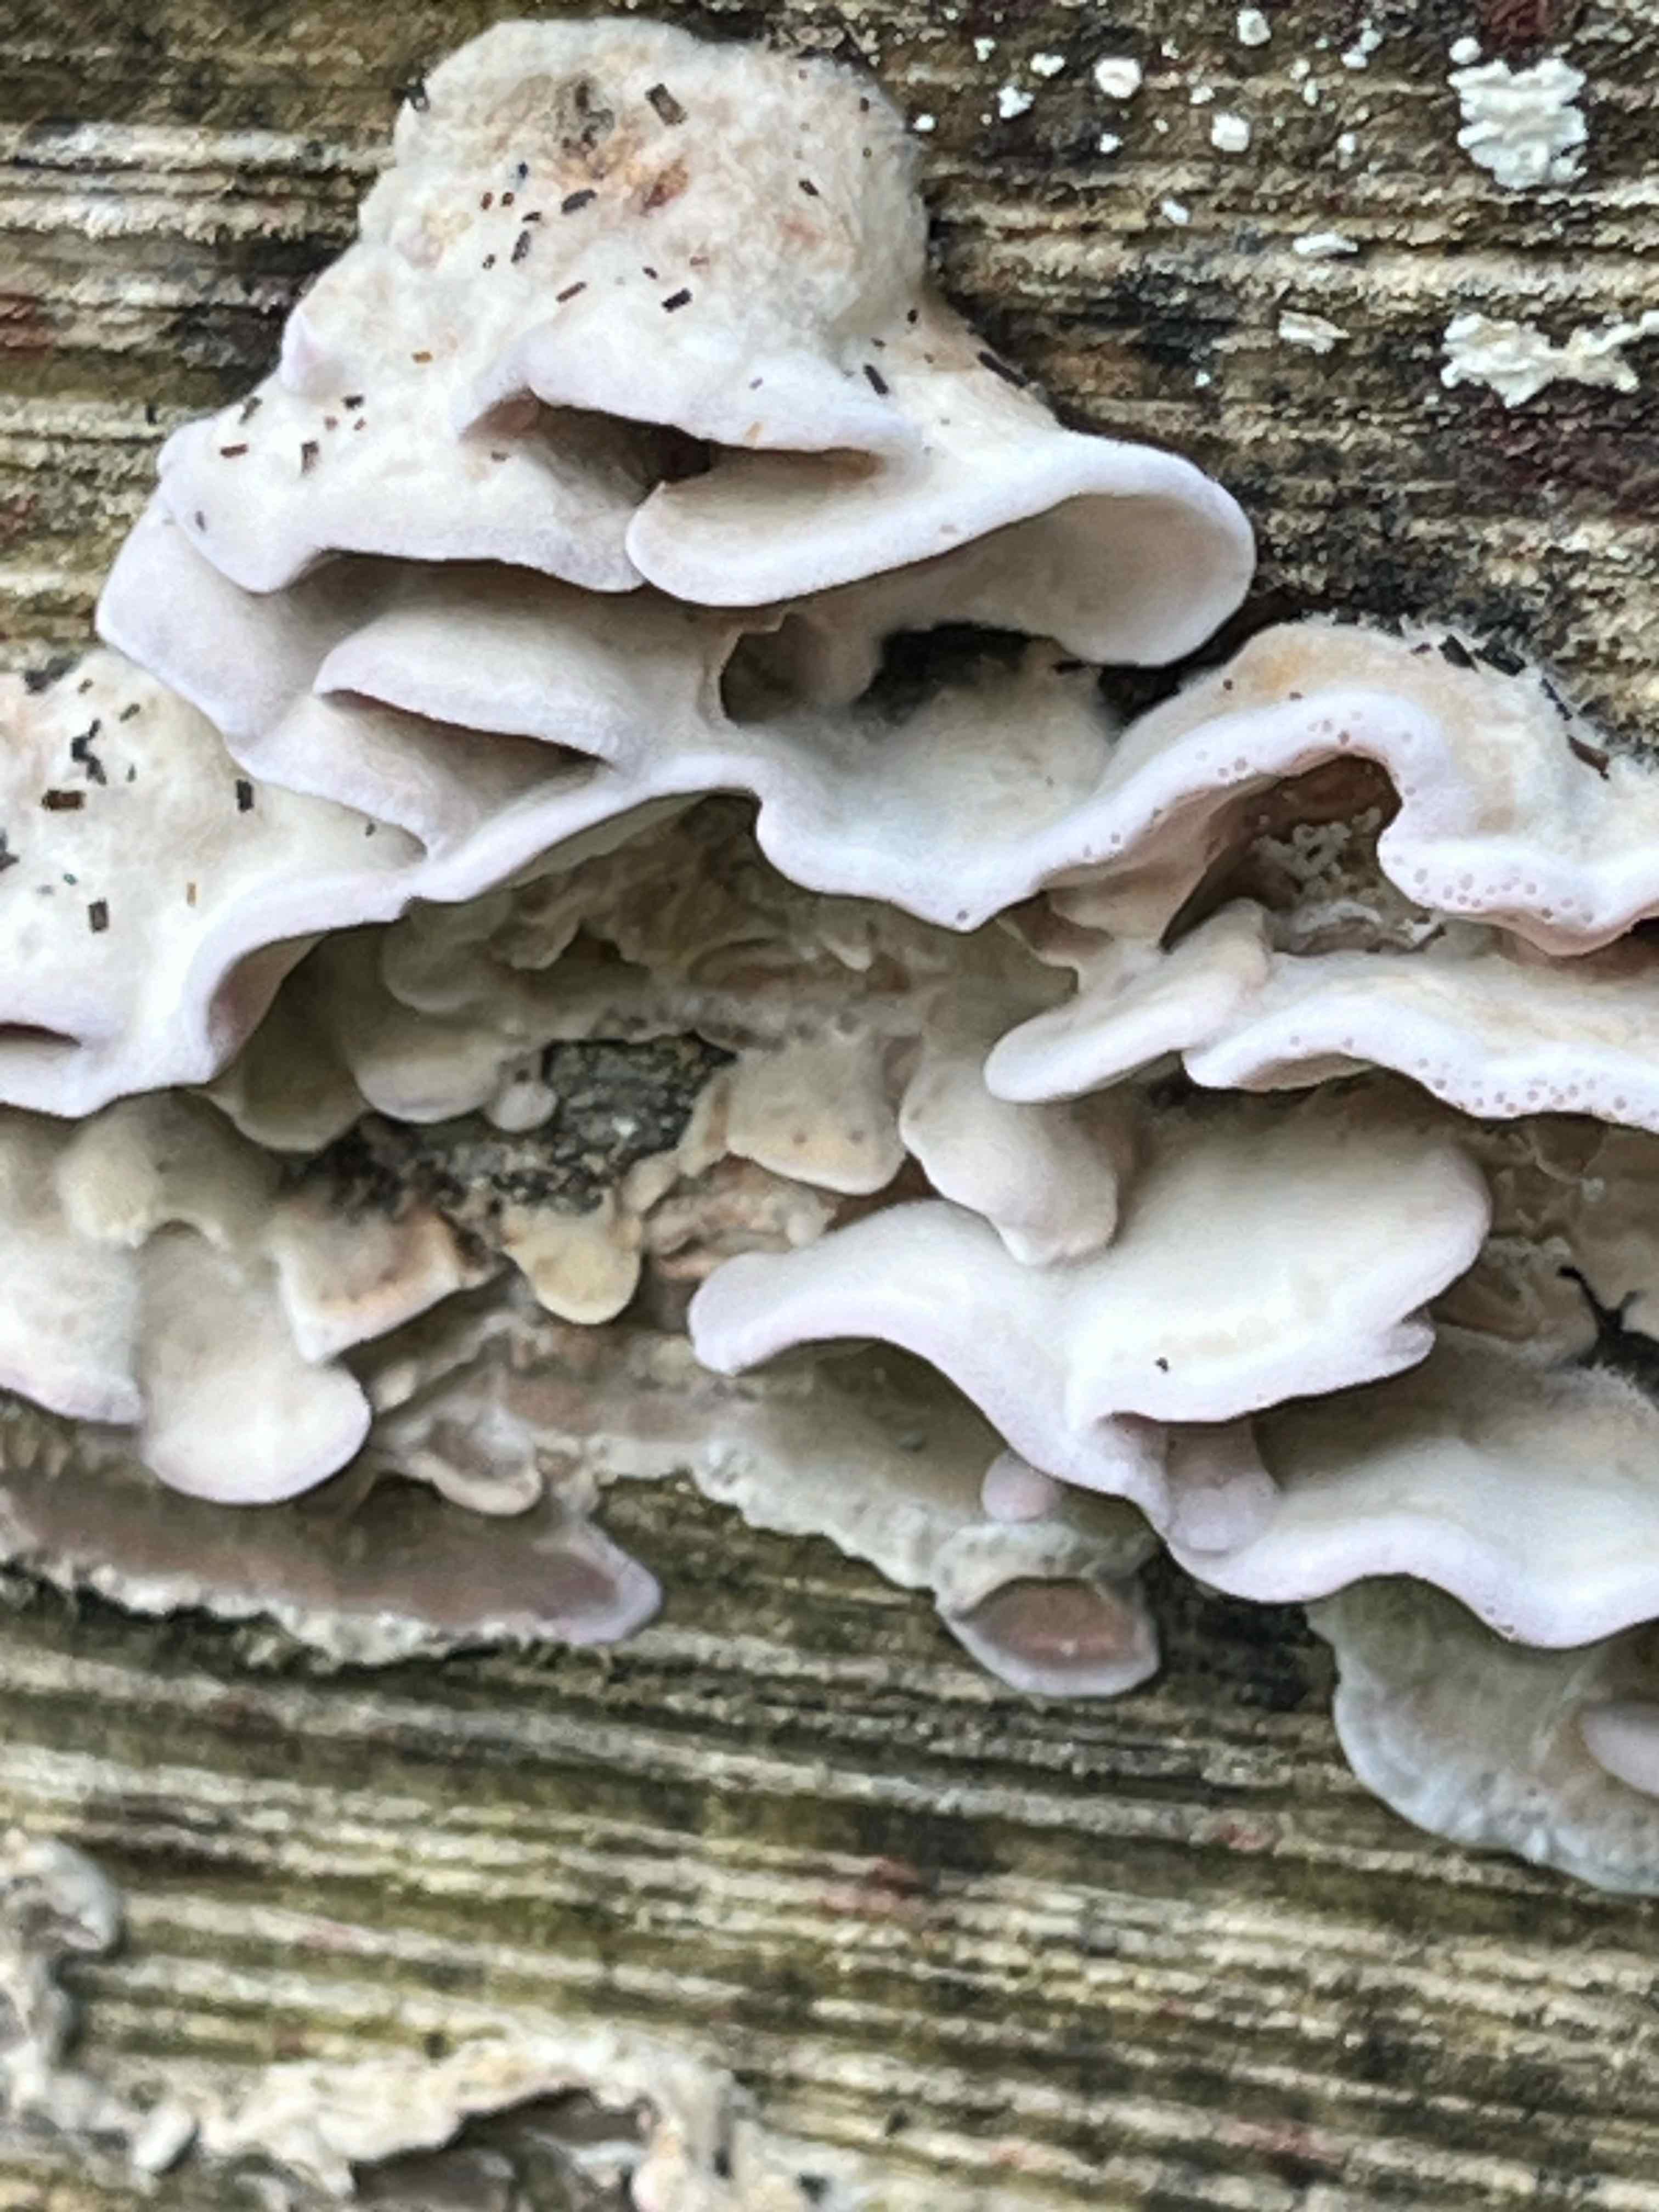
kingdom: Fungi
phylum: Basidiomycota
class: Agaricomycetes
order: Agaricales
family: Cyphellaceae
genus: Chondrostereum
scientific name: Chondrostereum purpureum
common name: purpurlædersvamp
